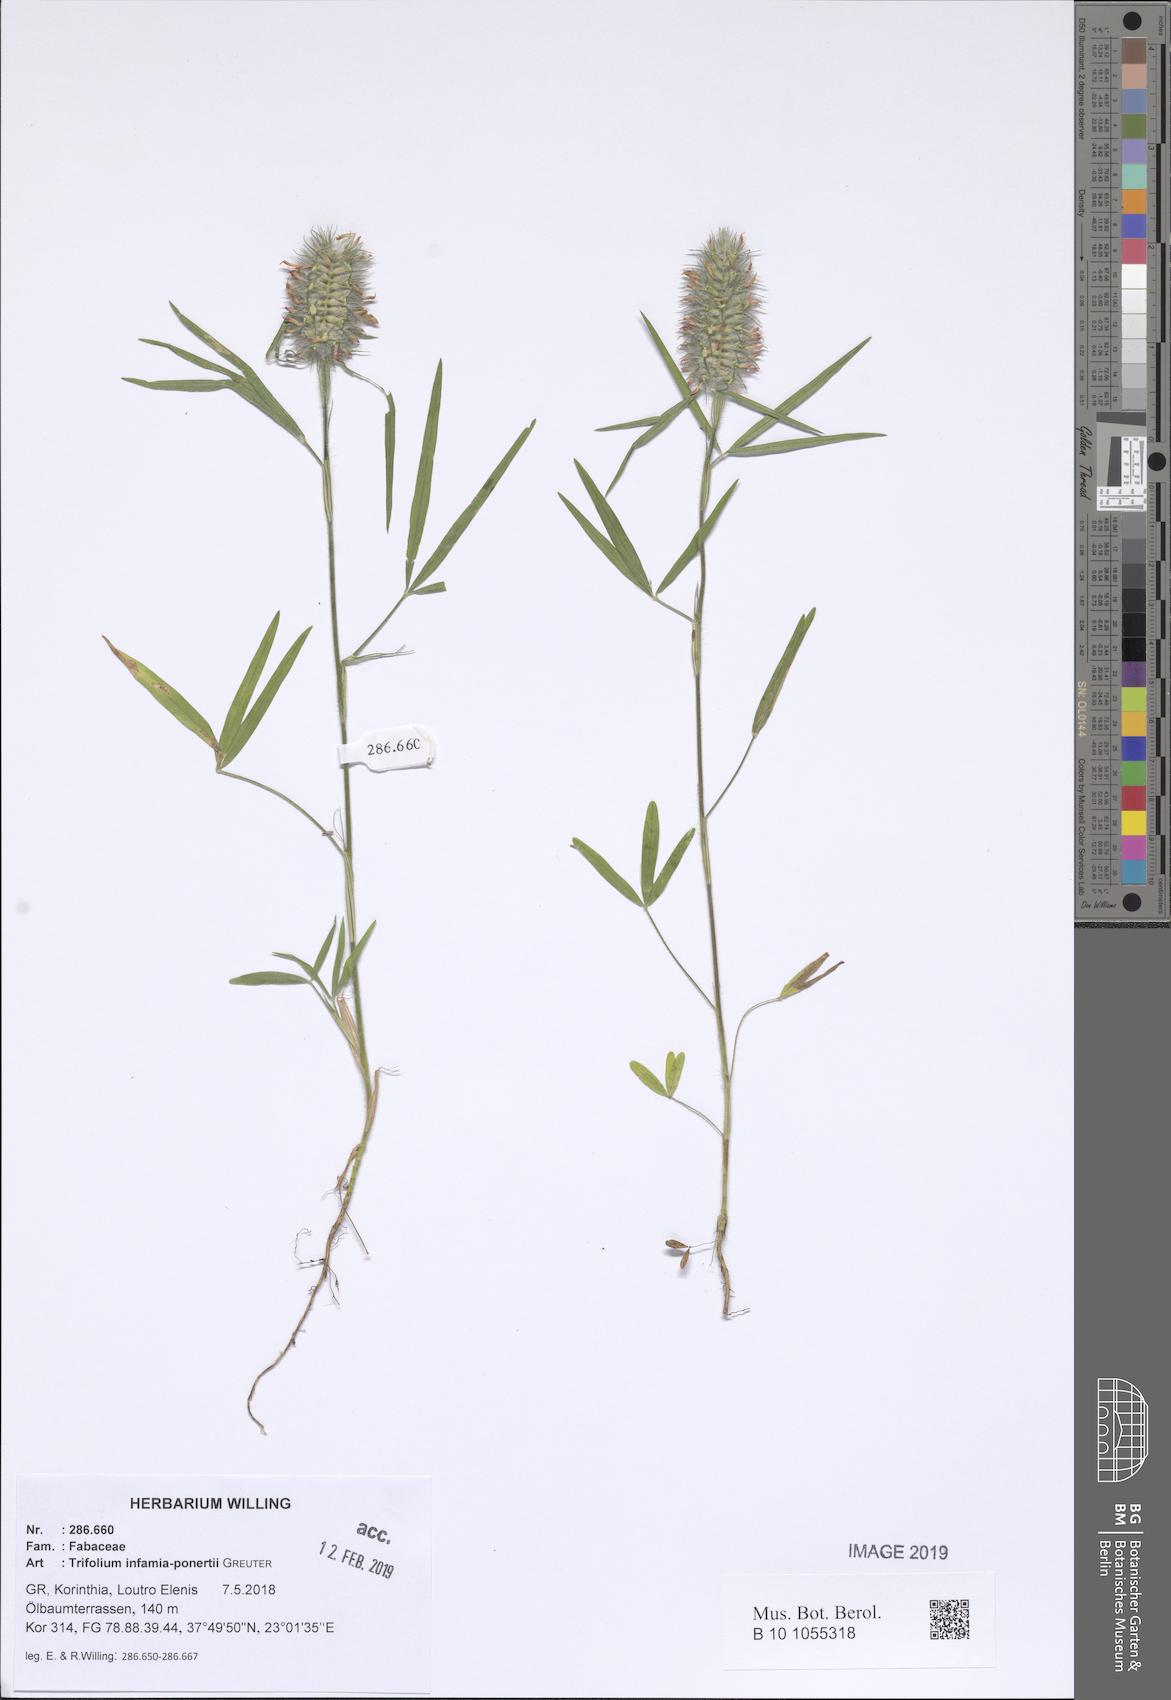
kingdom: Plantae
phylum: Tracheophyta
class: Magnoliopsida
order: Fabales
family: Fabaceae
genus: Trifolium
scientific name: Trifolium infamia-ponertii
